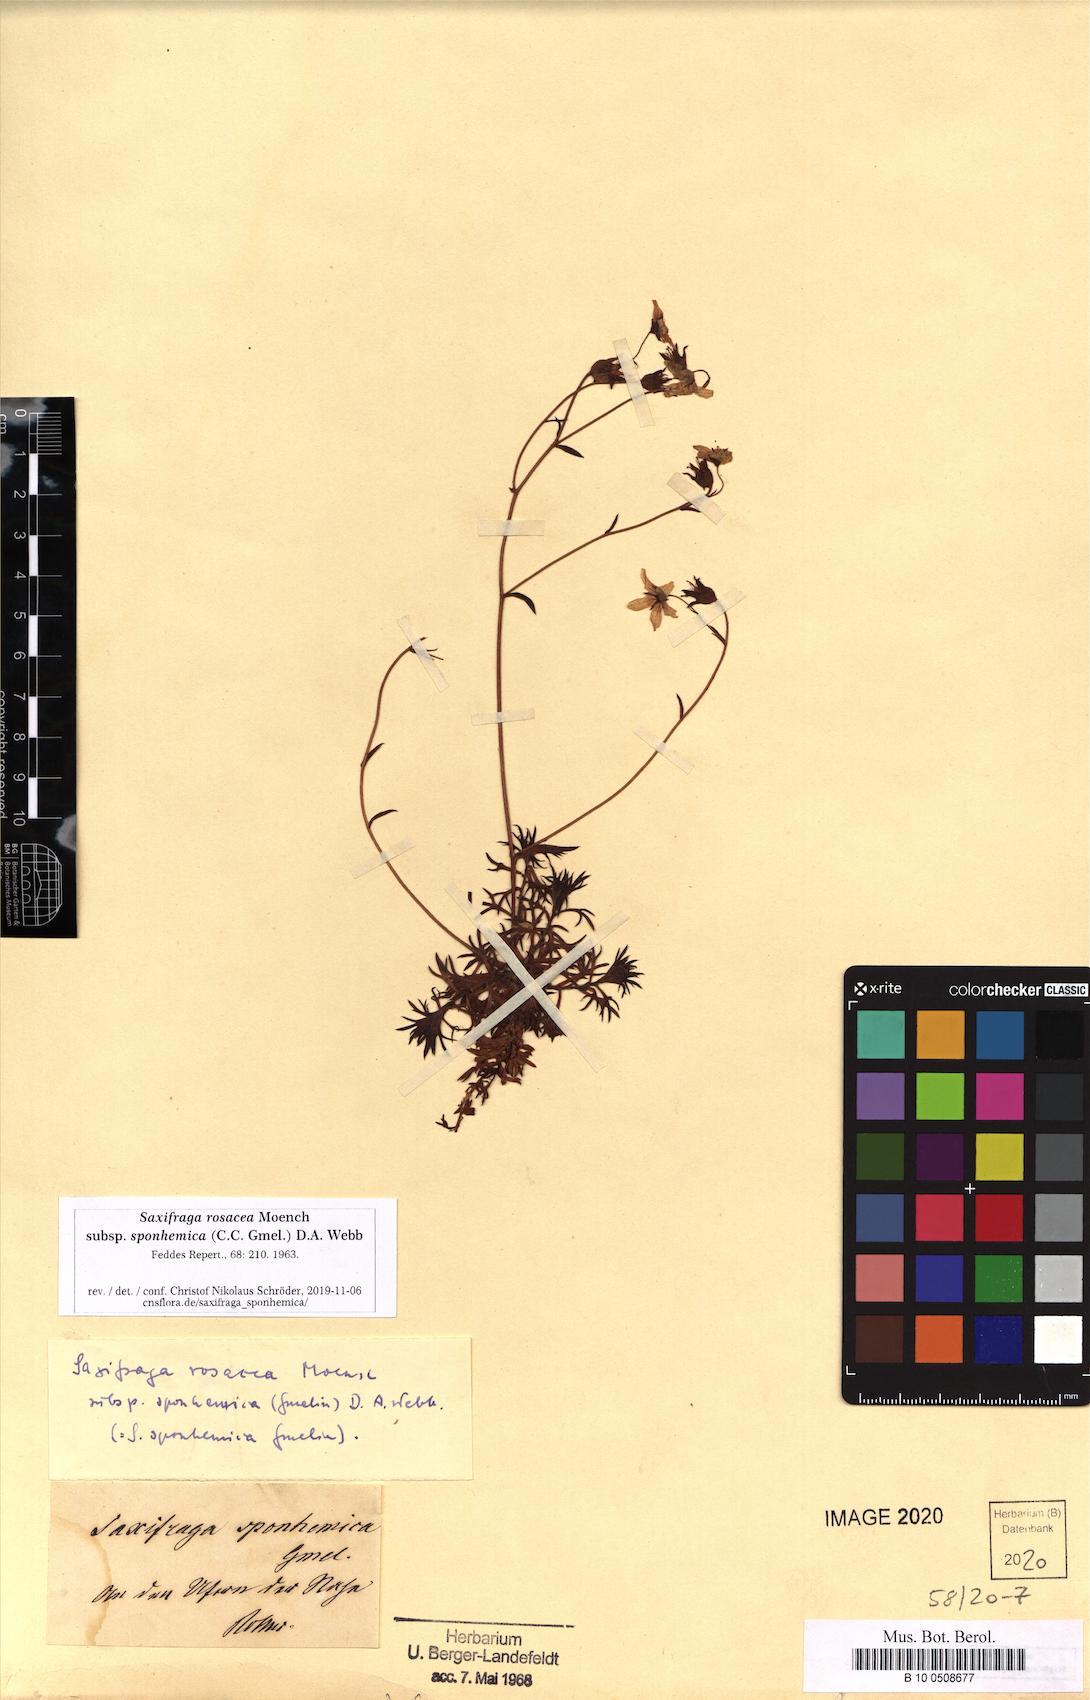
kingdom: Plantae
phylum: Tracheophyta
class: Magnoliopsida
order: Saxifragales
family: Saxifragaceae
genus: Saxifraga
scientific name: Saxifraga rosacea
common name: Irish saxifrage
